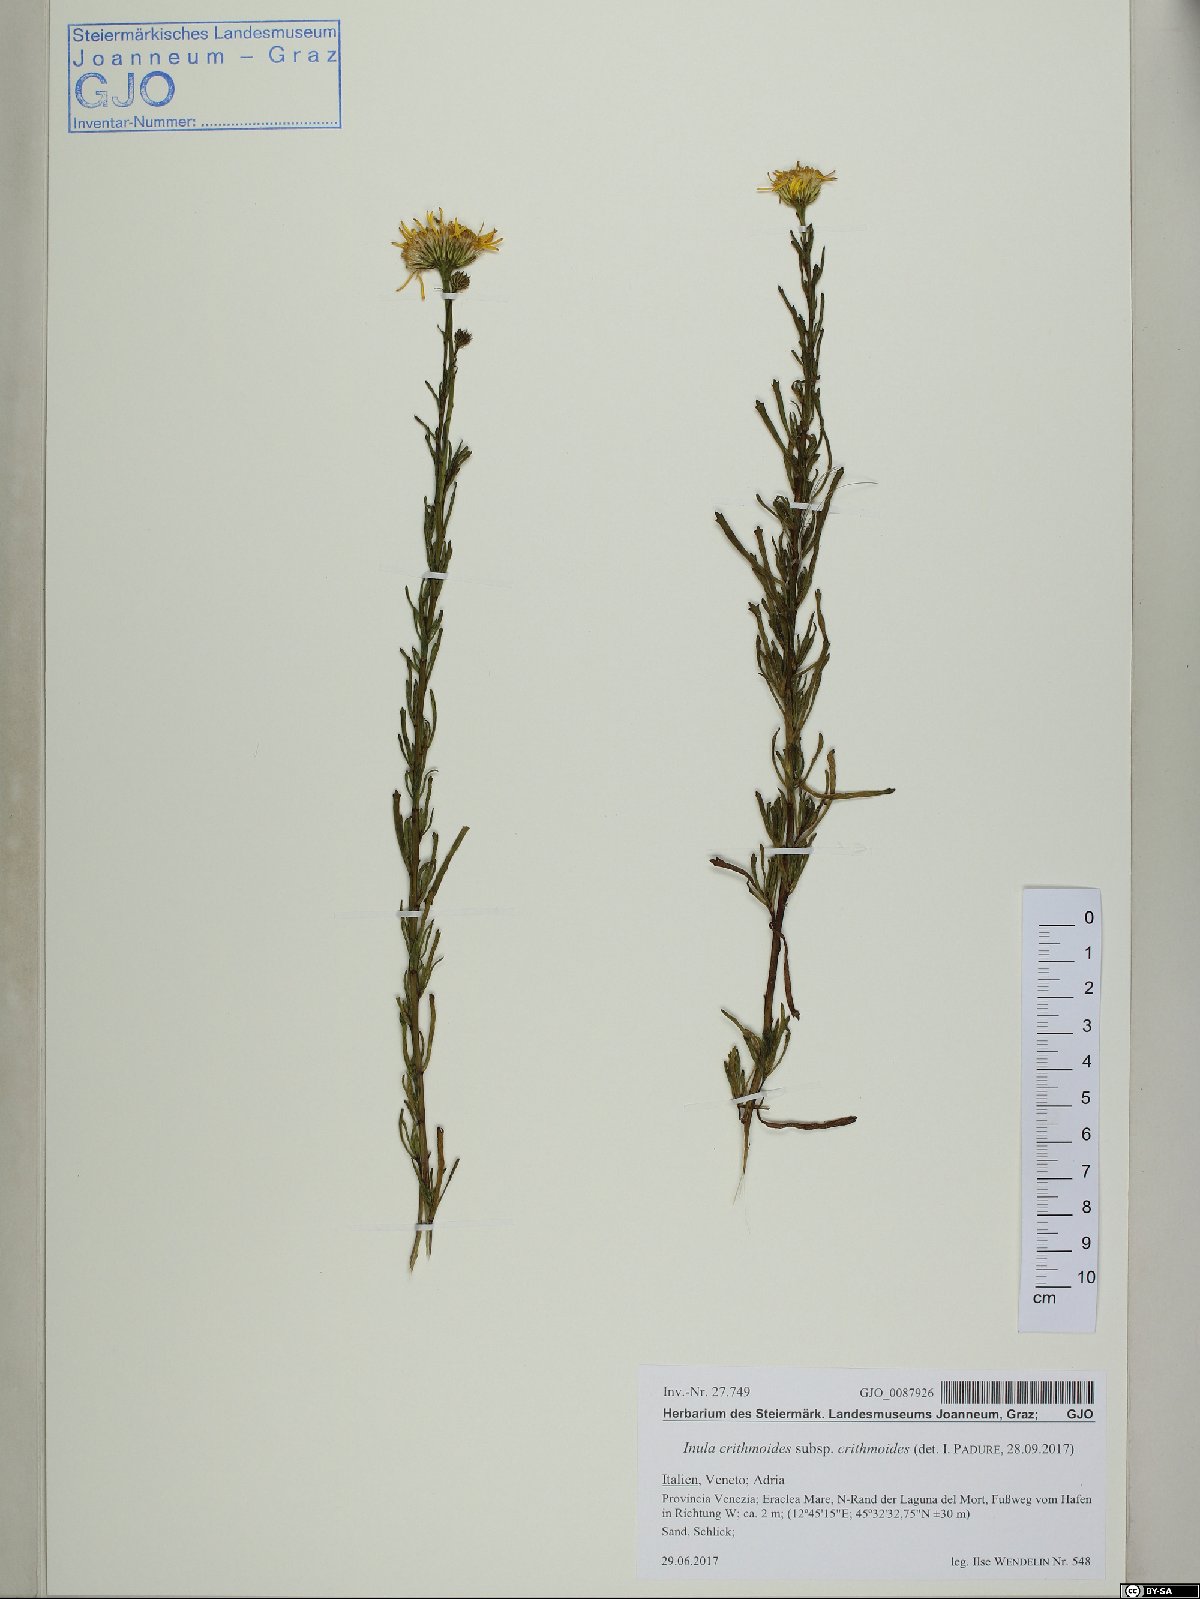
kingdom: Plantae
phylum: Tracheophyta
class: Magnoliopsida
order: Asterales
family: Asteraceae
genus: Limbarda
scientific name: Limbarda crithmoides
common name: Golden samphire
